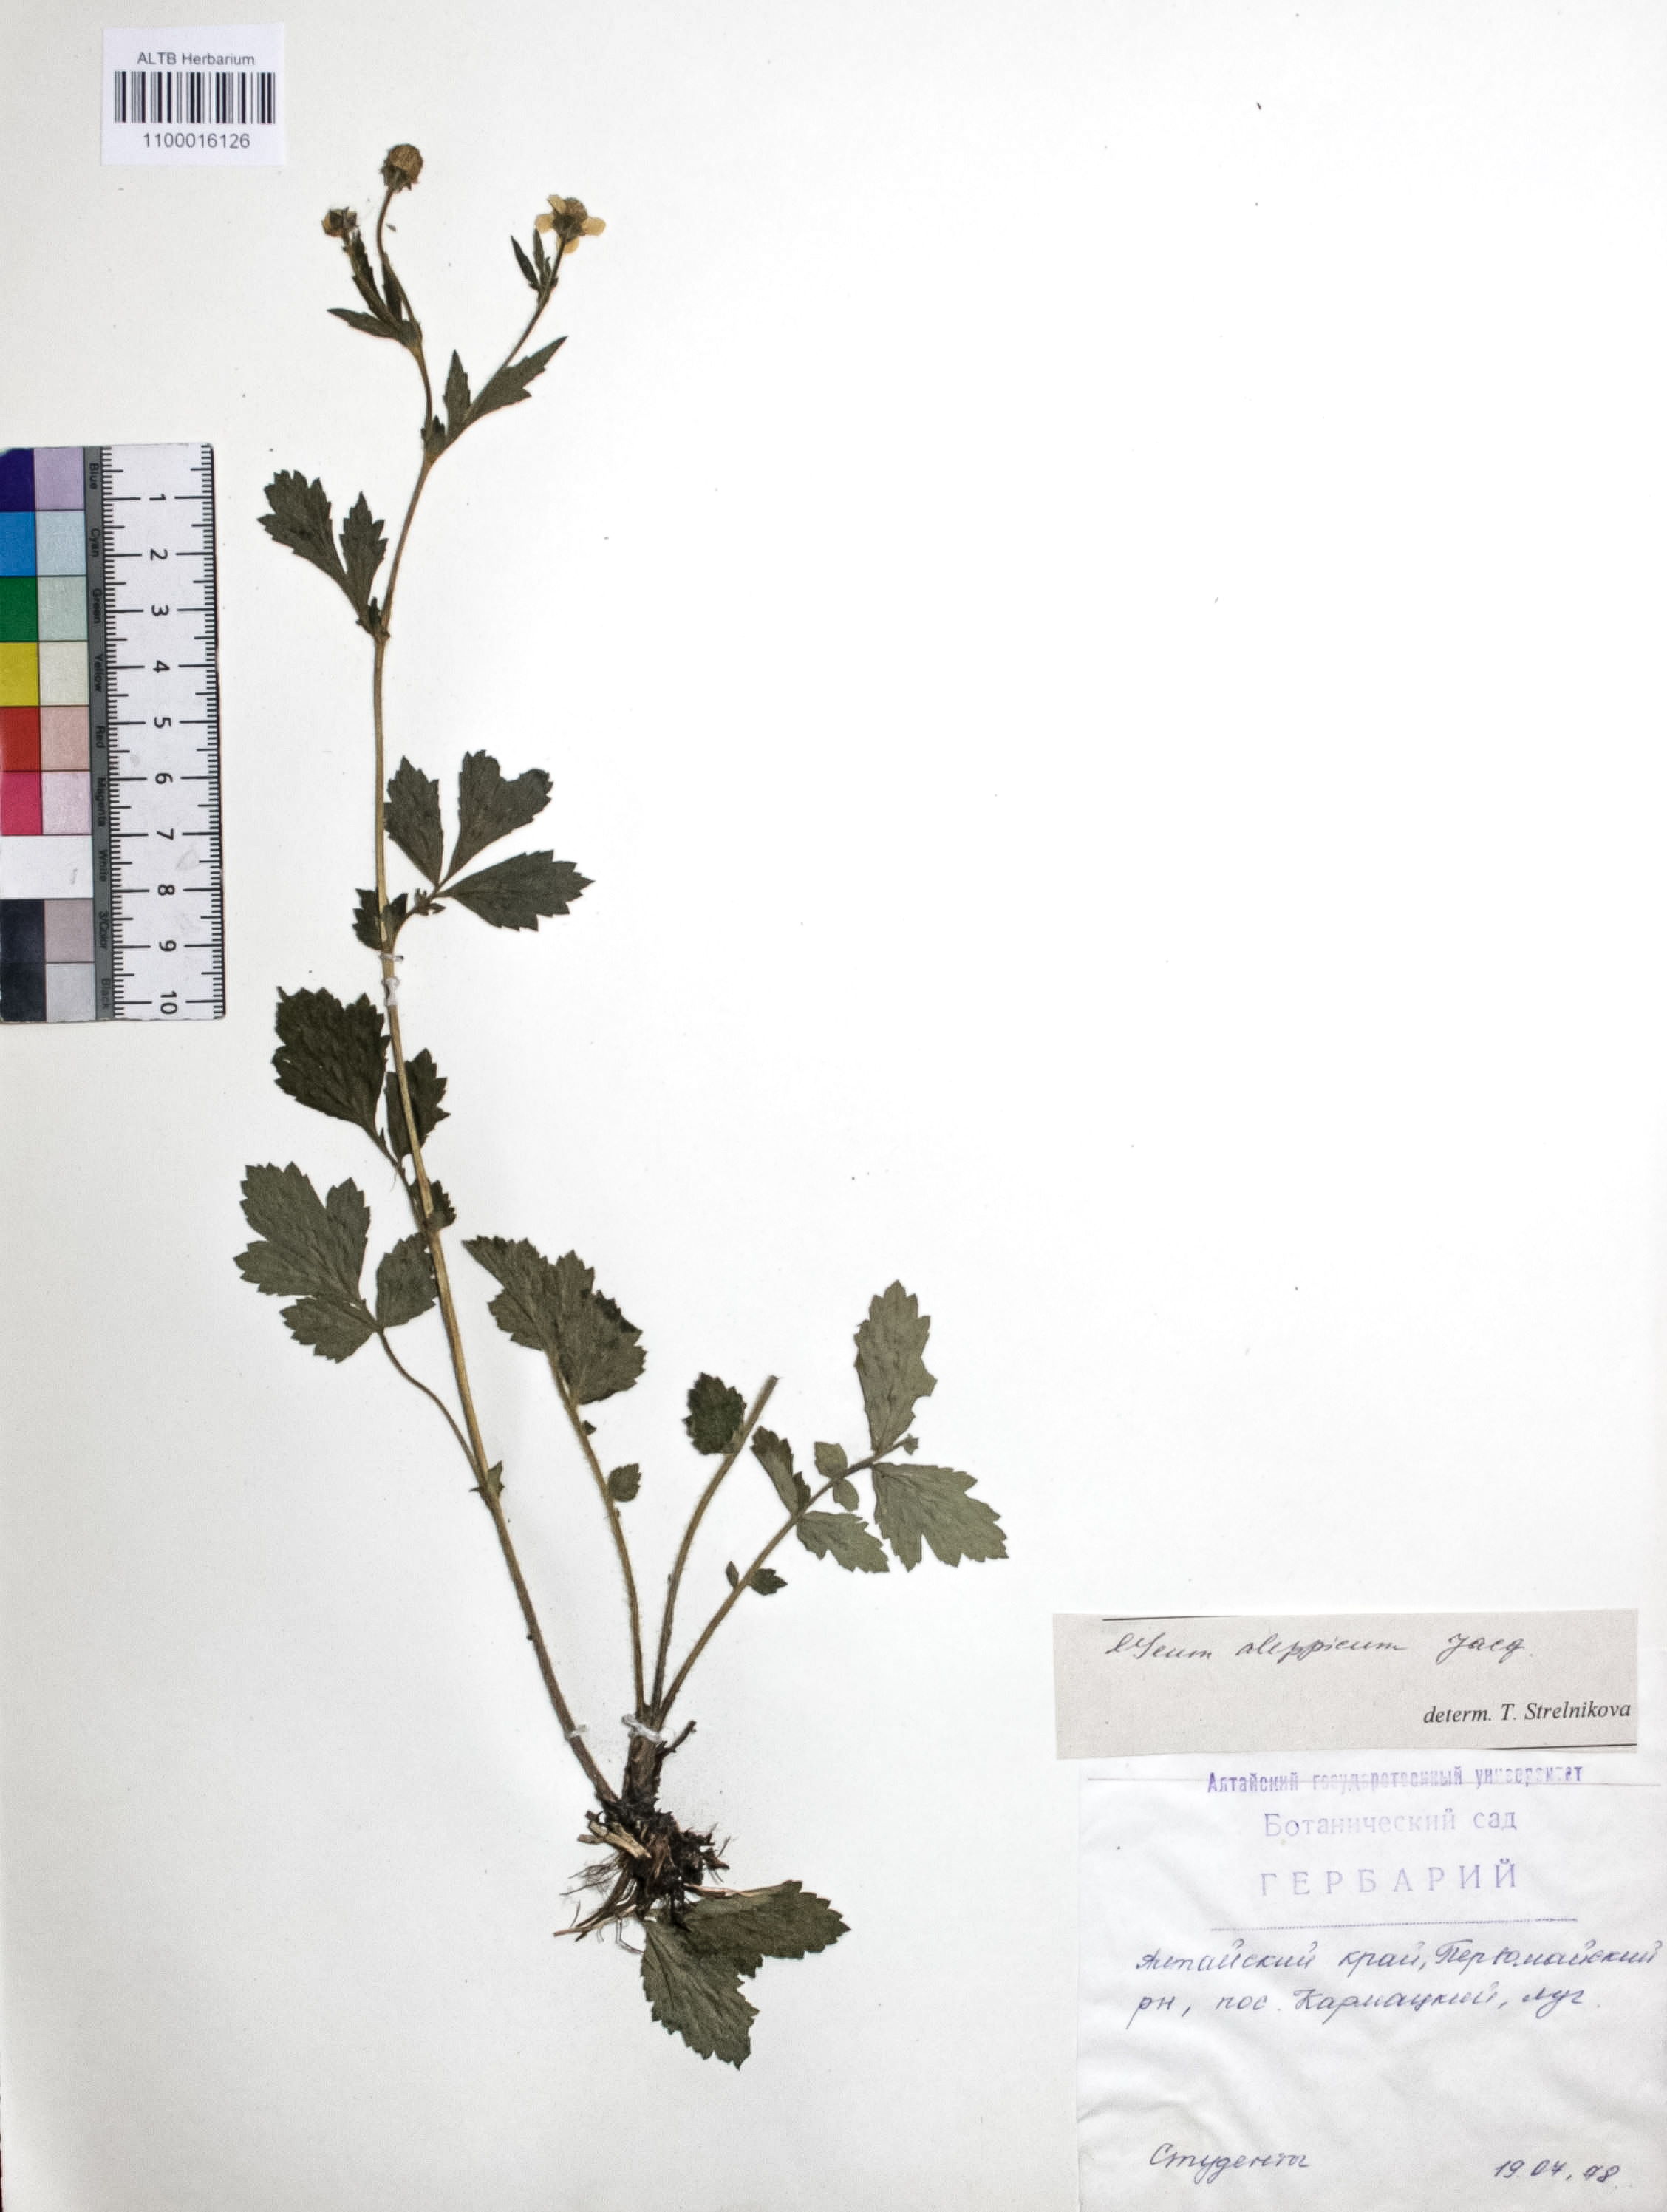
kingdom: Plantae
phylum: Tracheophyta
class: Magnoliopsida
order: Rosales
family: Rosaceae
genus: Geum
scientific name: Geum aleppicum
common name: Yellow avens
